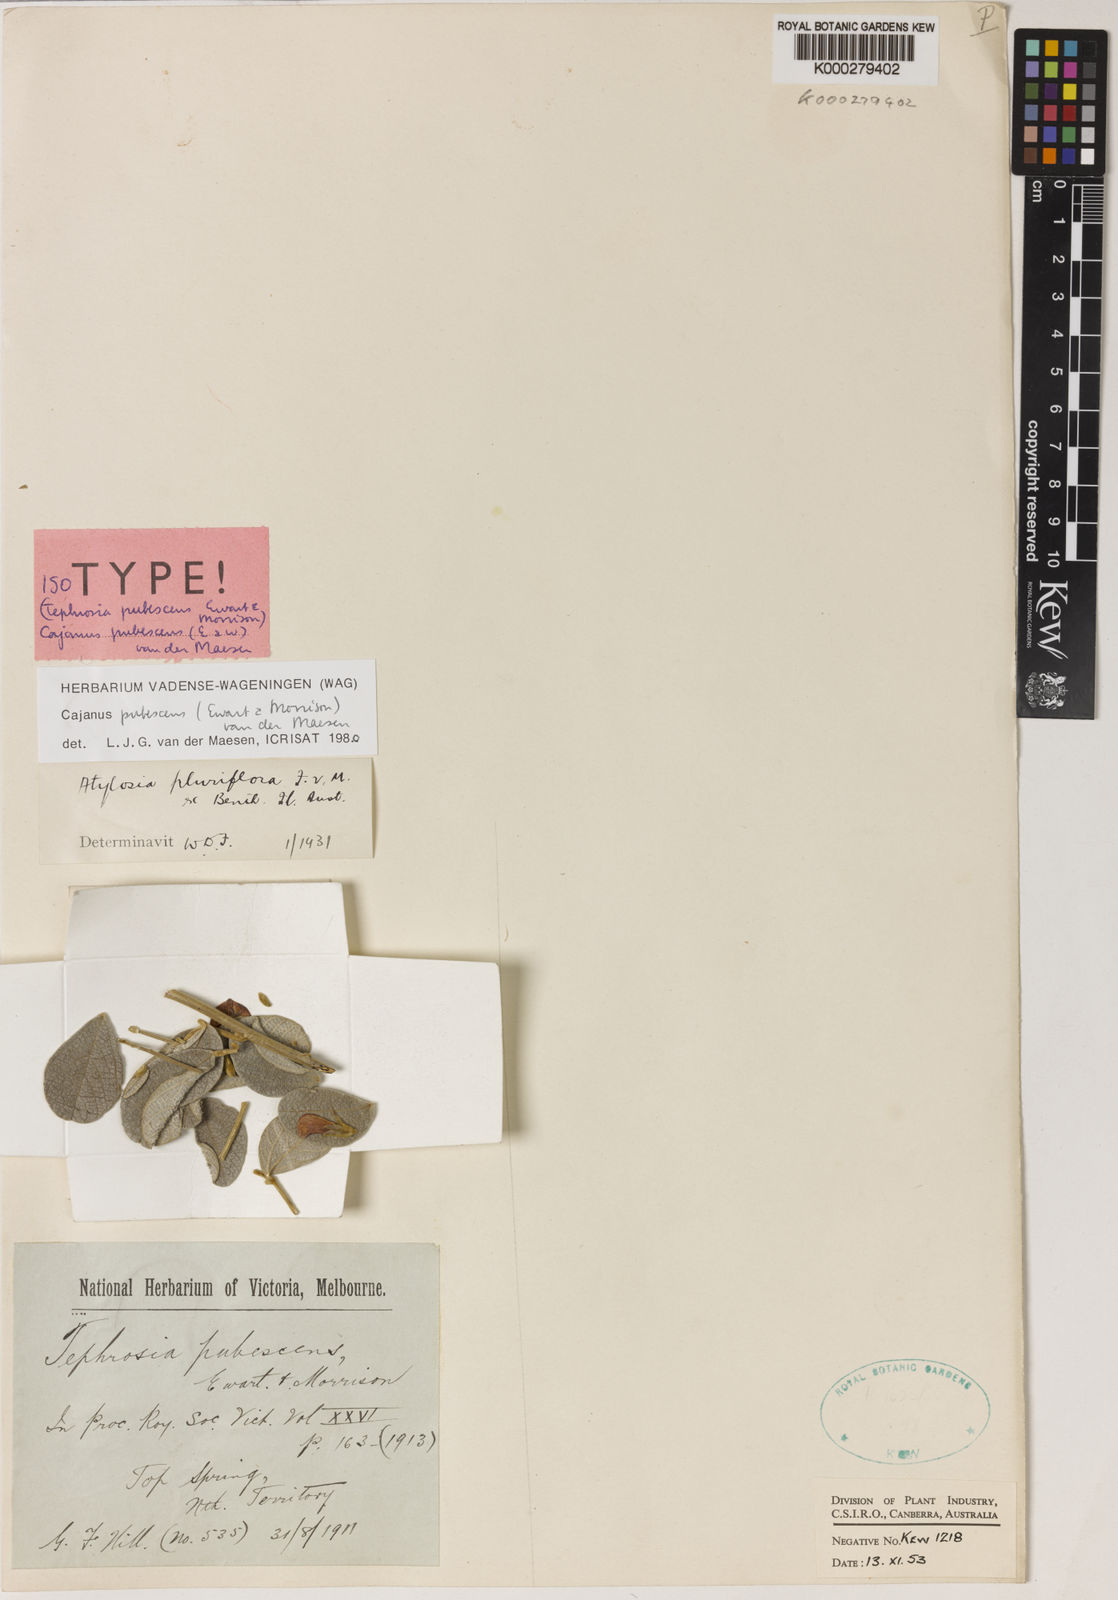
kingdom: Plantae
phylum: Tracheophyta
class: Magnoliopsida
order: Fabales
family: Fabaceae
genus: Cajanus
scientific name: Cajanus pubescens
